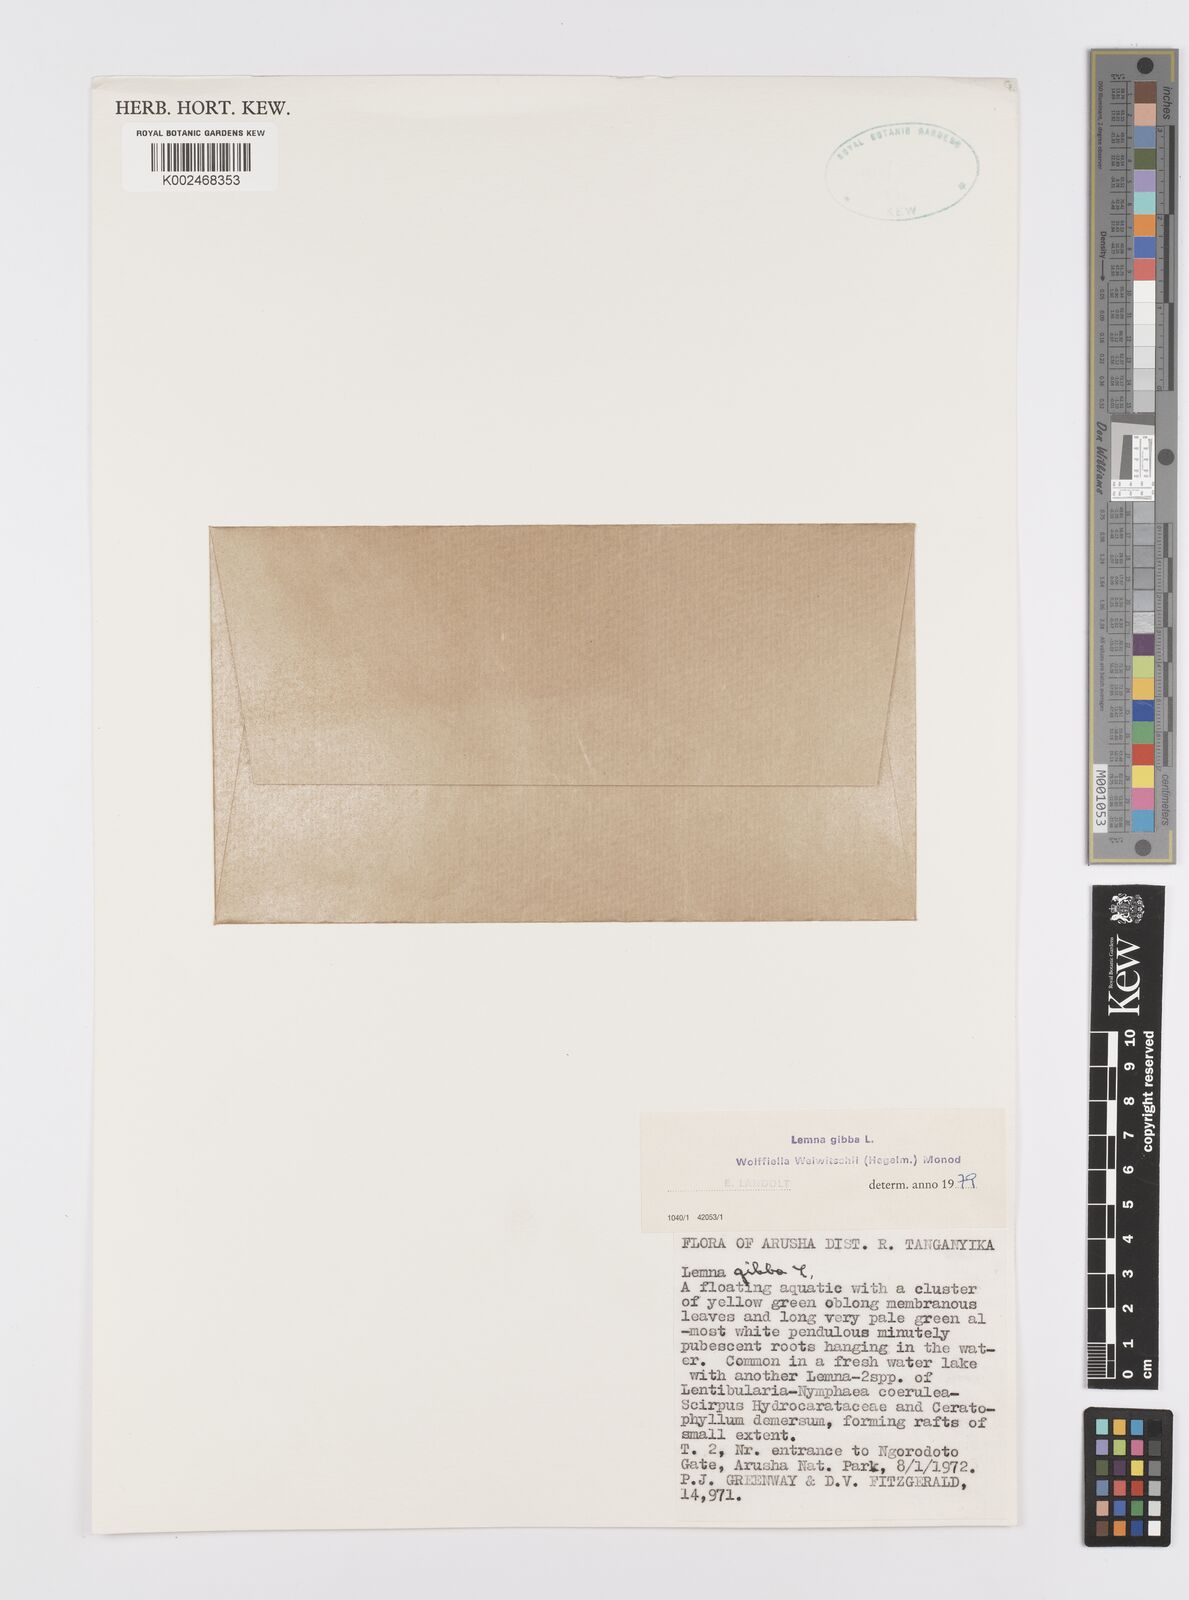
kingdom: Plantae
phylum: Tracheophyta
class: Liliopsida
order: Alismatales
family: Araceae
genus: Wolffiella
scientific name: Wolffiella welwitschii
